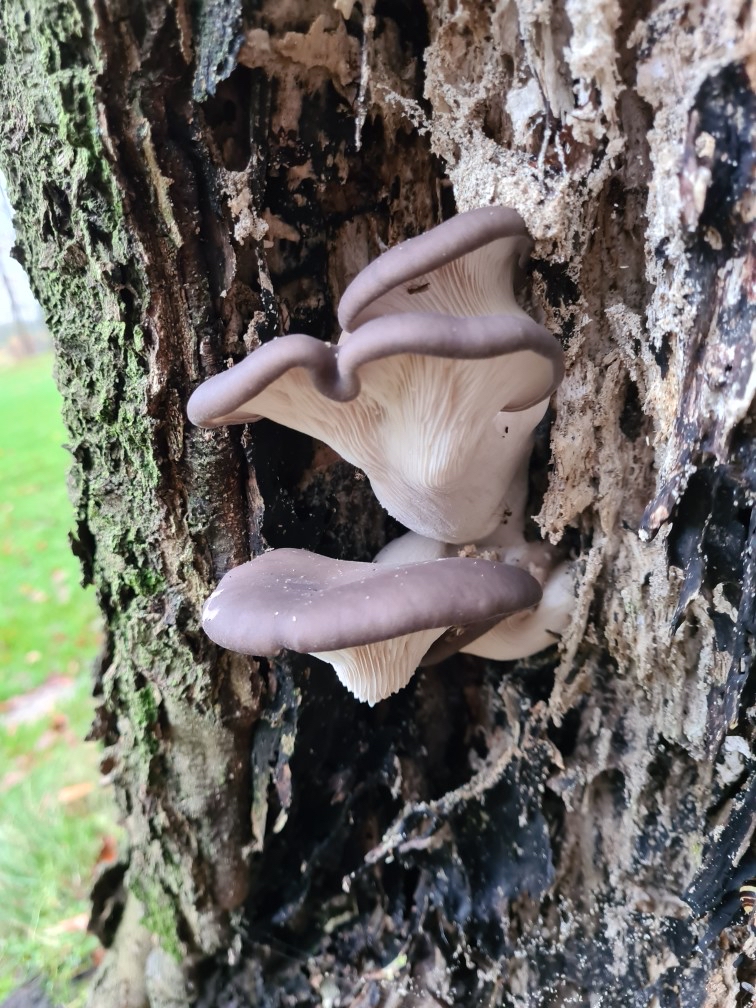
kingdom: Fungi
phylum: Basidiomycota
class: Agaricomycetes
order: Agaricales
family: Pleurotaceae
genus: Pleurotus
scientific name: Pleurotus ostreatus
